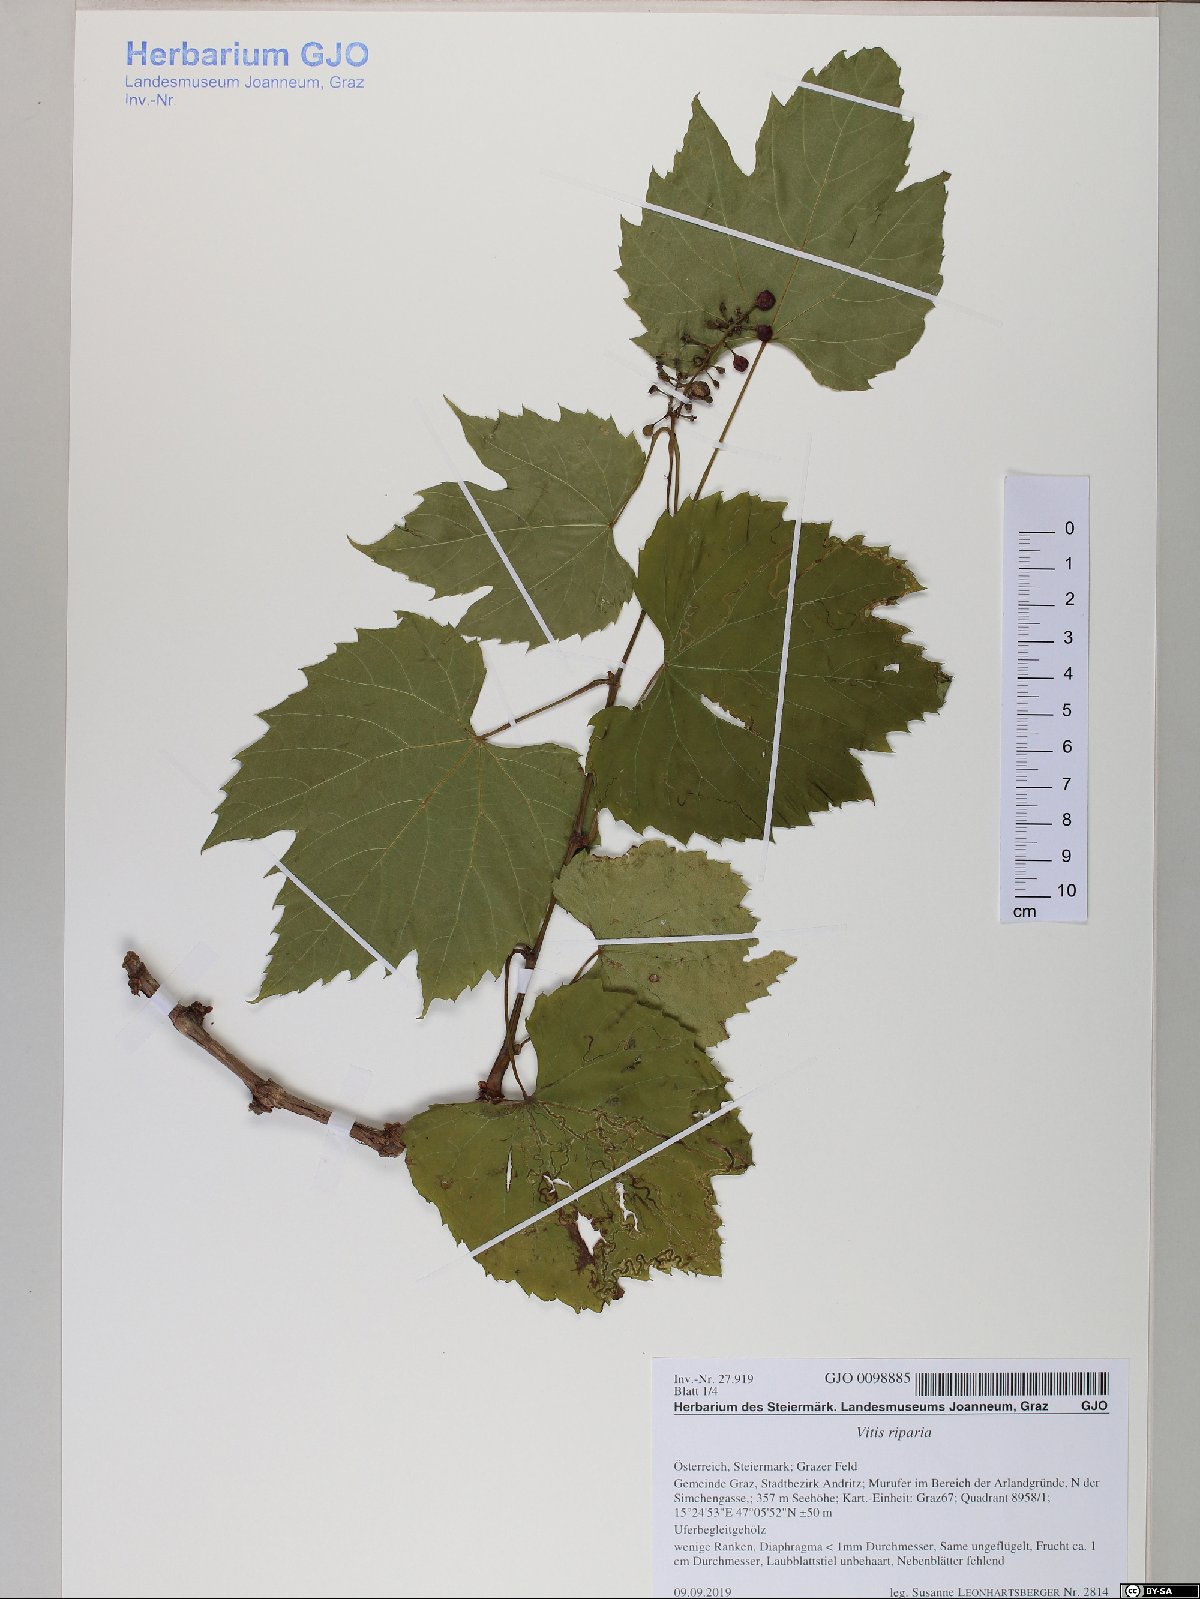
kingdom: Plantae
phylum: Tracheophyta
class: Magnoliopsida
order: Vitales
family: Vitaceae
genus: Vitis
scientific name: Vitis riparia
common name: Frost grape
